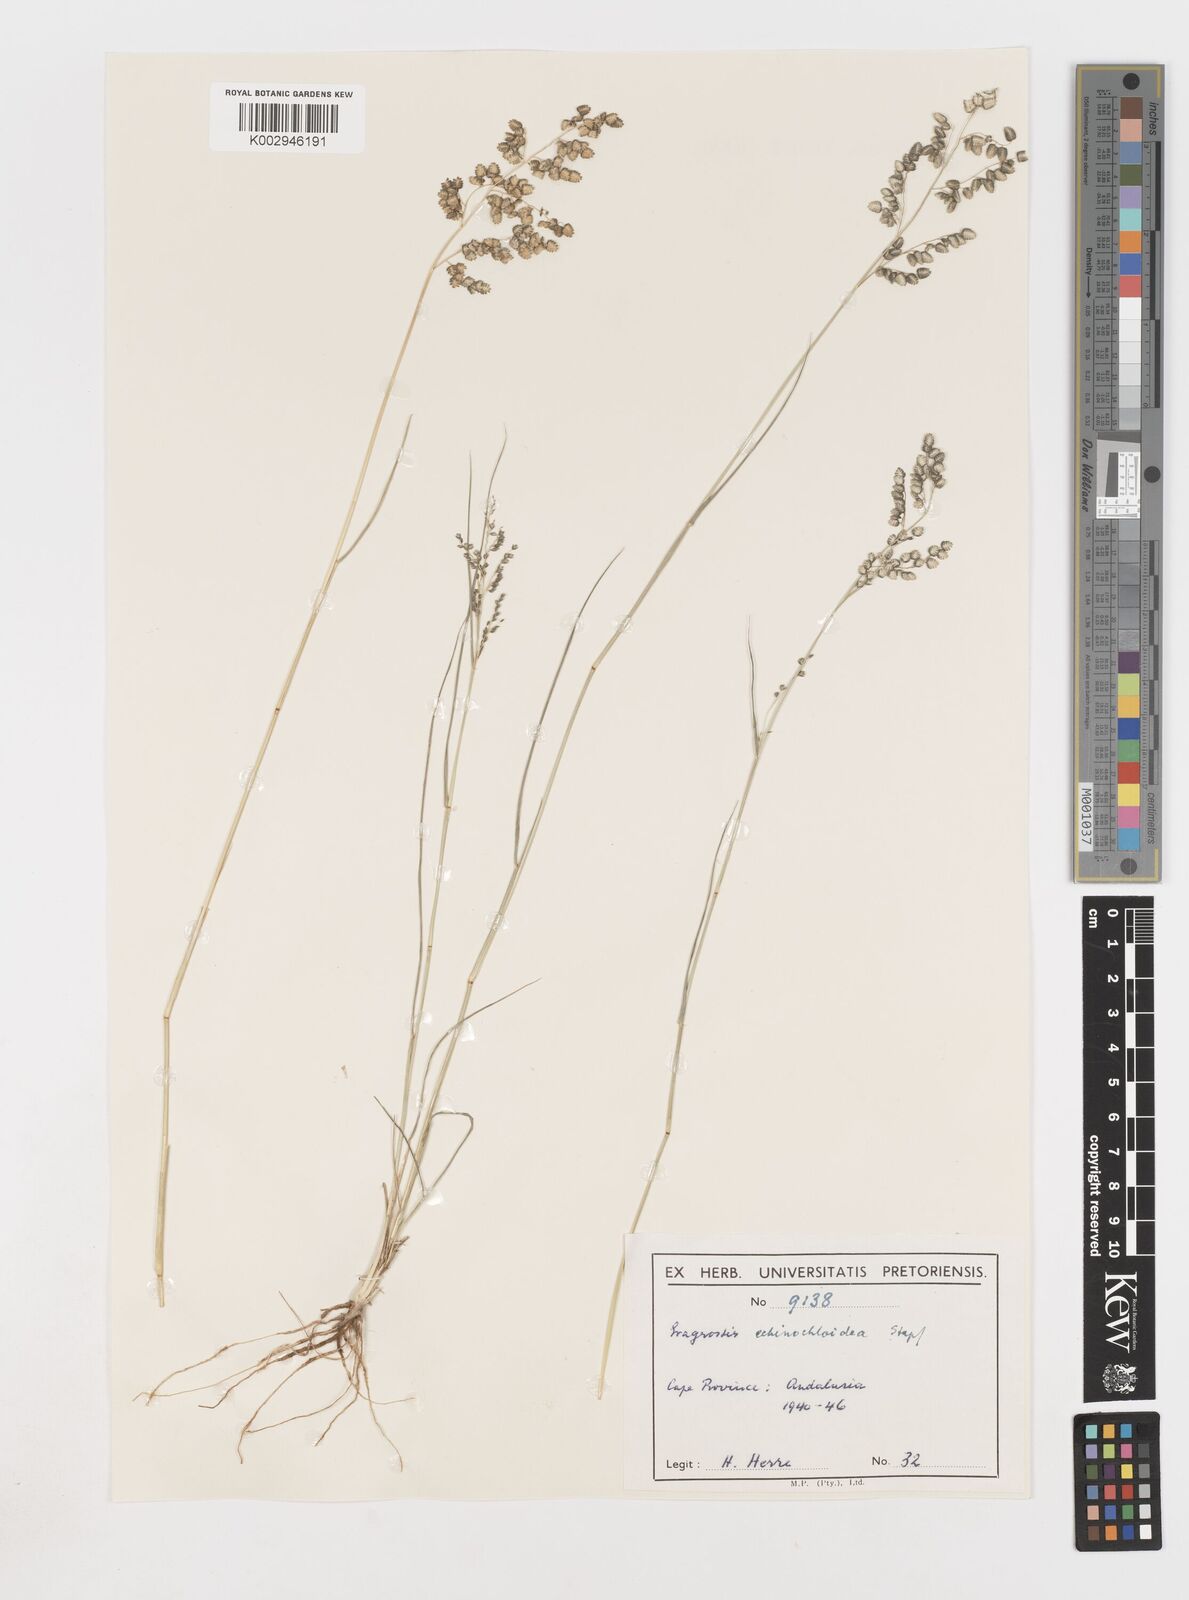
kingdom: Plantae
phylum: Tracheophyta
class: Liliopsida
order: Poales
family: Poaceae
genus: Eragrostis
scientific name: Eragrostis echinochloidea
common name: African lovegrass
